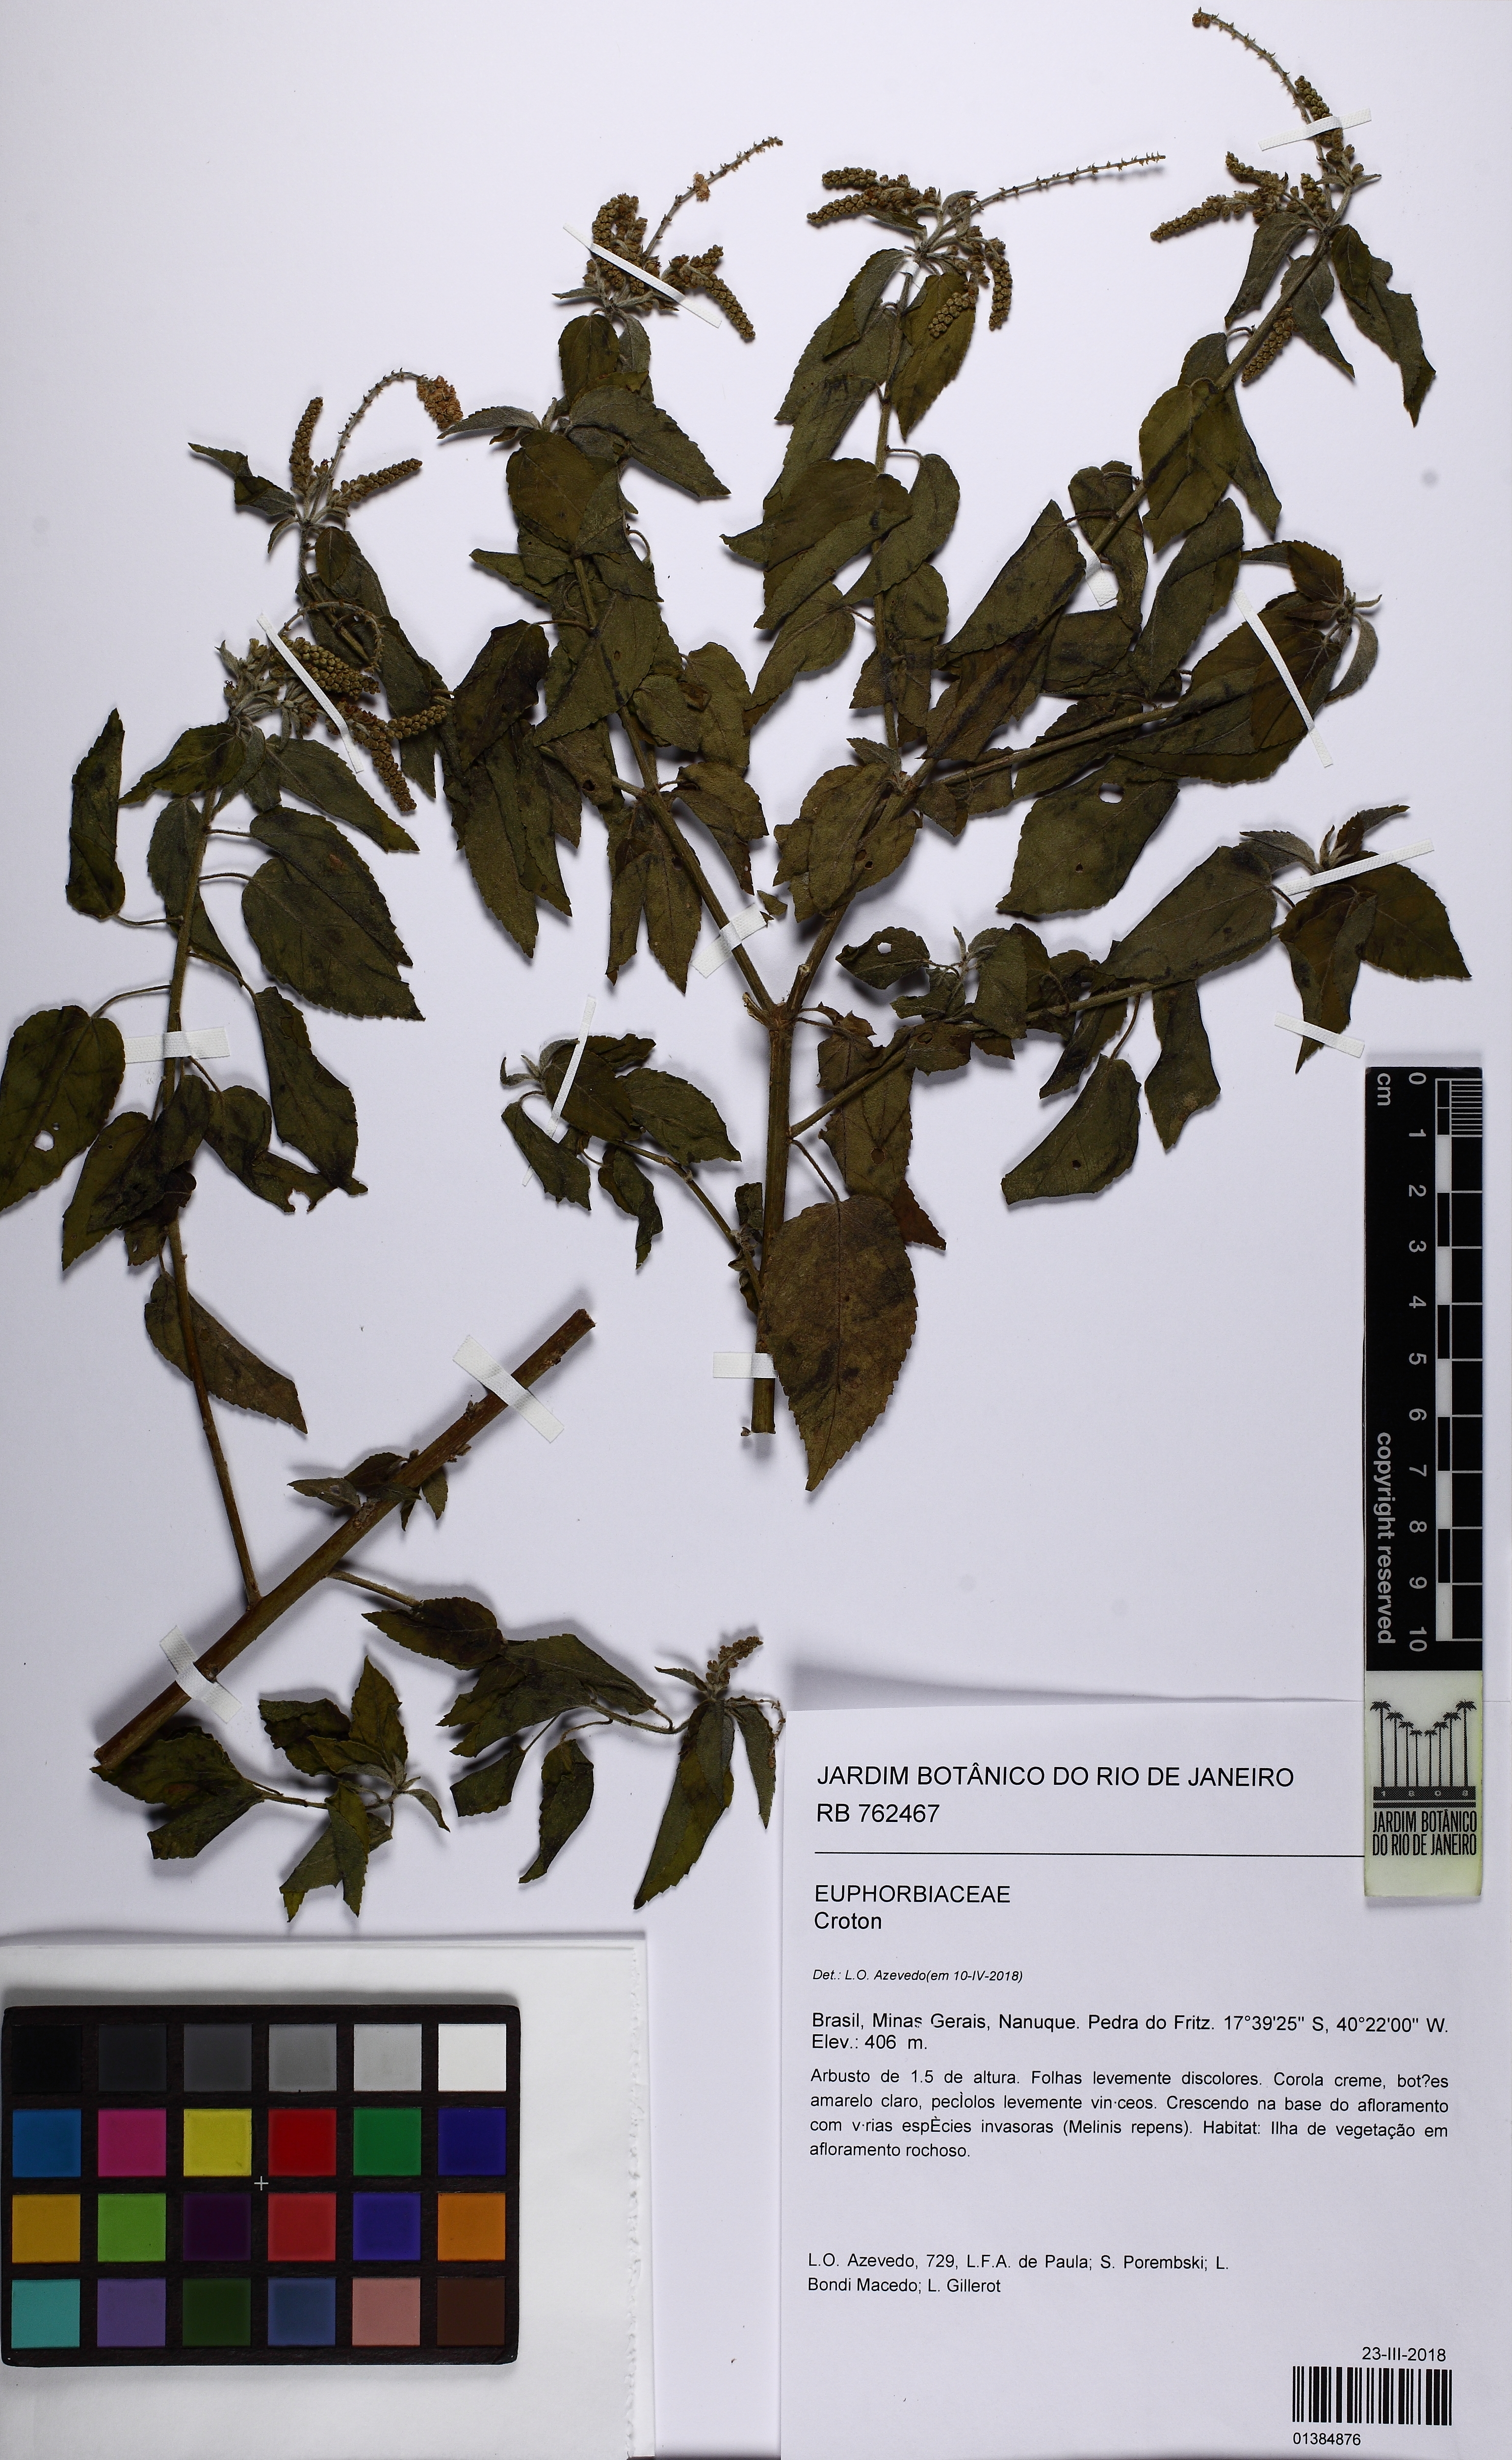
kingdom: Plantae
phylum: Tracheophyta
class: Magnoliopsida
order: Malpighiales
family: Euphorbiaceae
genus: Croton
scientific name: Croton
